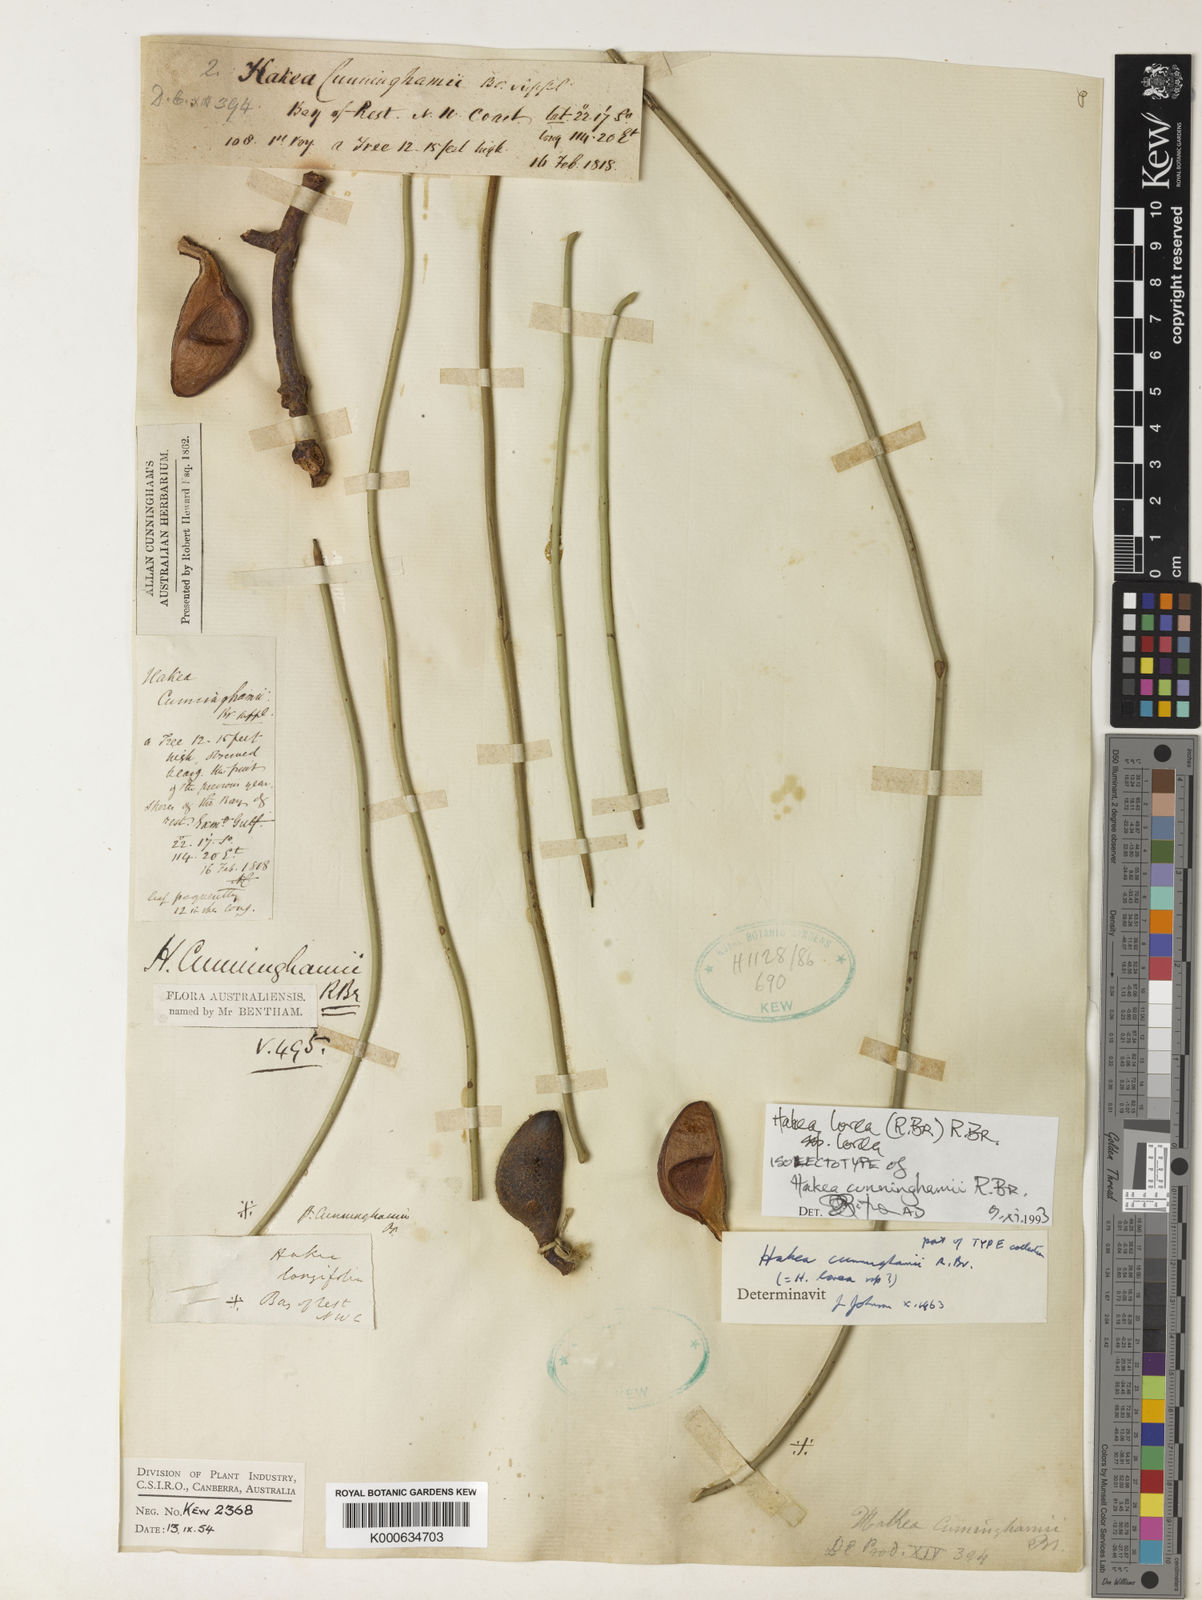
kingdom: Plantae
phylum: Tracheophyta
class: Magnoliopsida
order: Proteales
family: Proteaceae
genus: Hakea
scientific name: Hakea lorea
